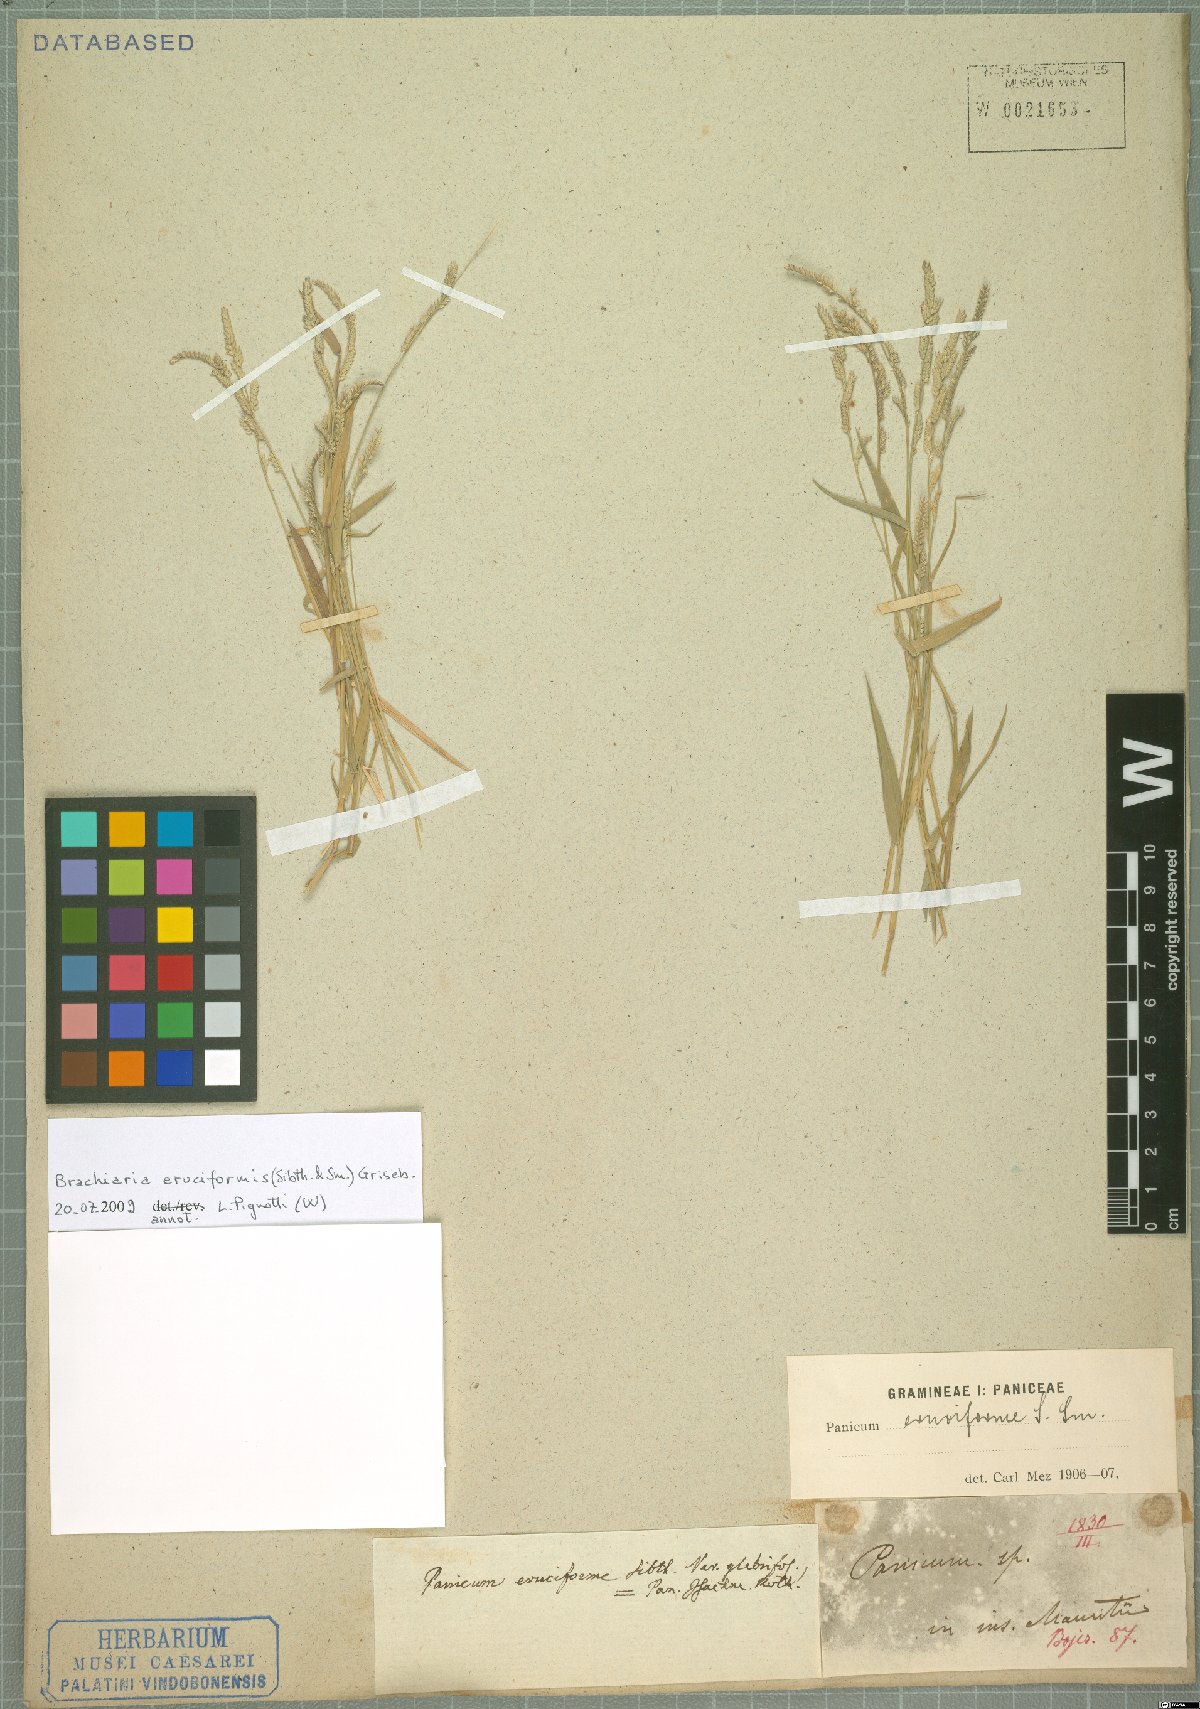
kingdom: Plantae
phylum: Tracheophyta
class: Liliopsida
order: Poales
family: Poaceae
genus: Moorochloa
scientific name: Moorochloa eruciformis
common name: Sweet signalgrass
